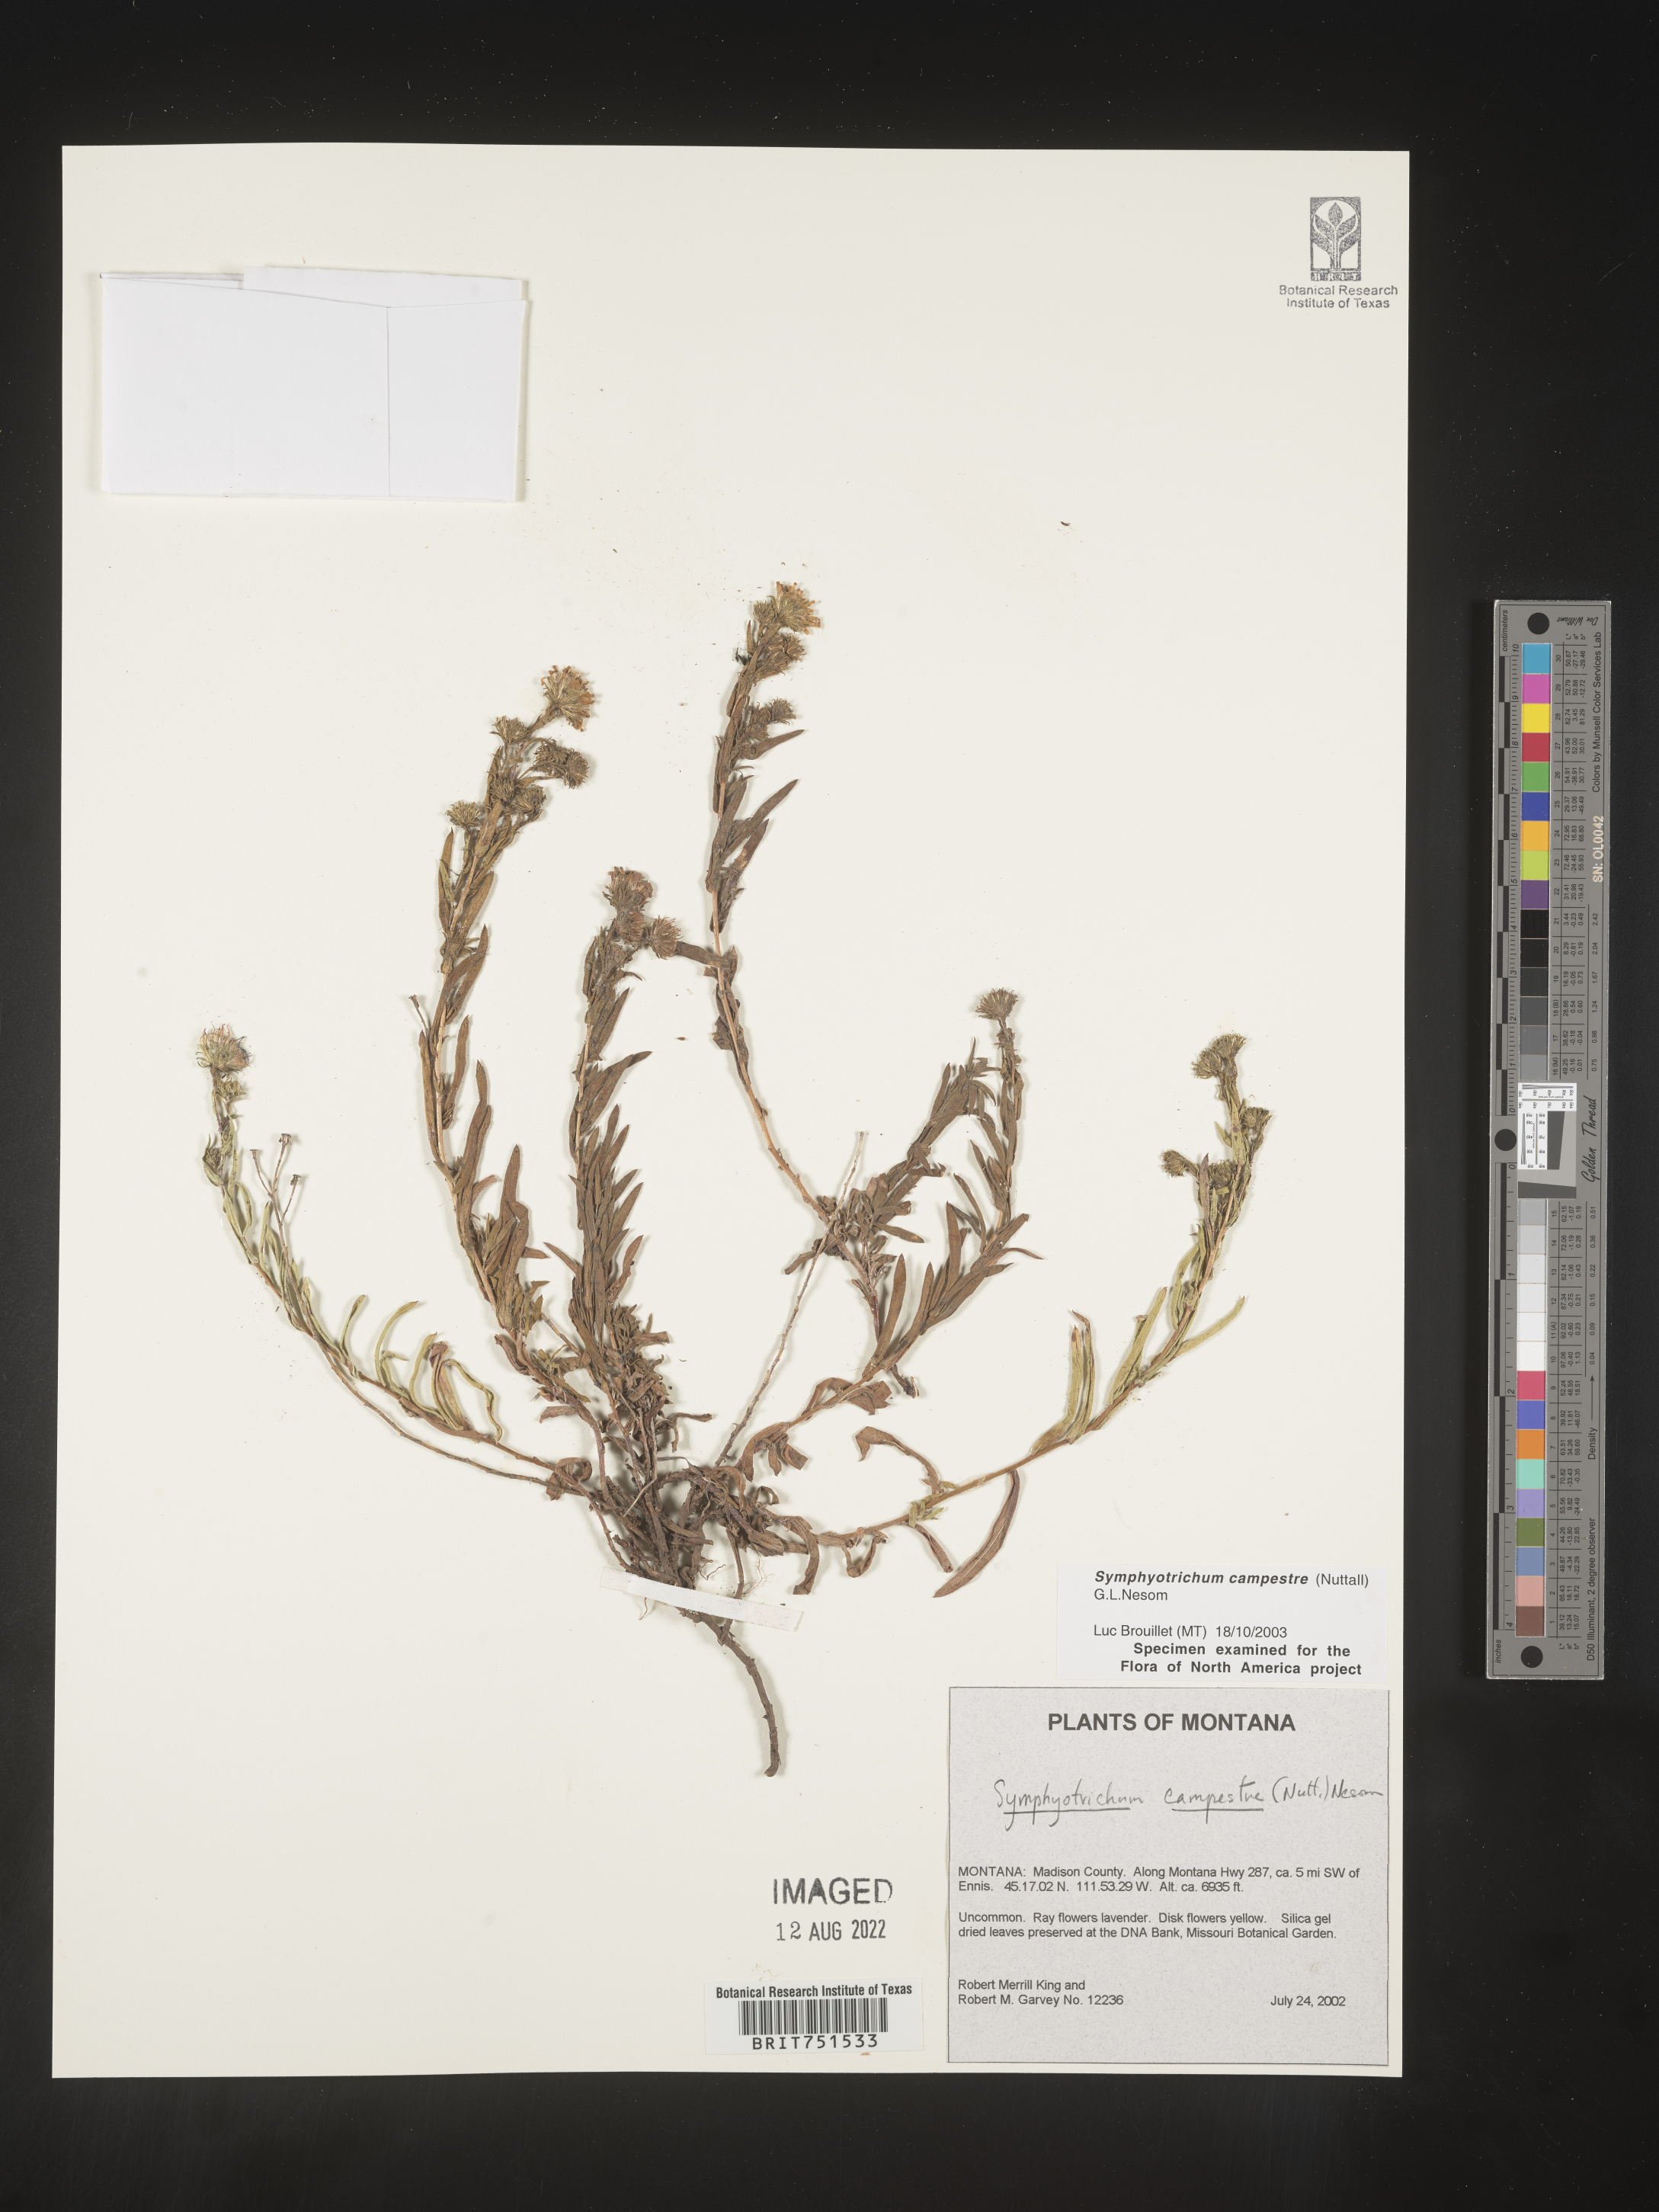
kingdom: Plantae
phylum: Tracheophyta
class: Magnoliopsida
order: Asterales
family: Asteraceae
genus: Symphyotrichum
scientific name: Symphyotrichum campestre
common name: Meadow aster
